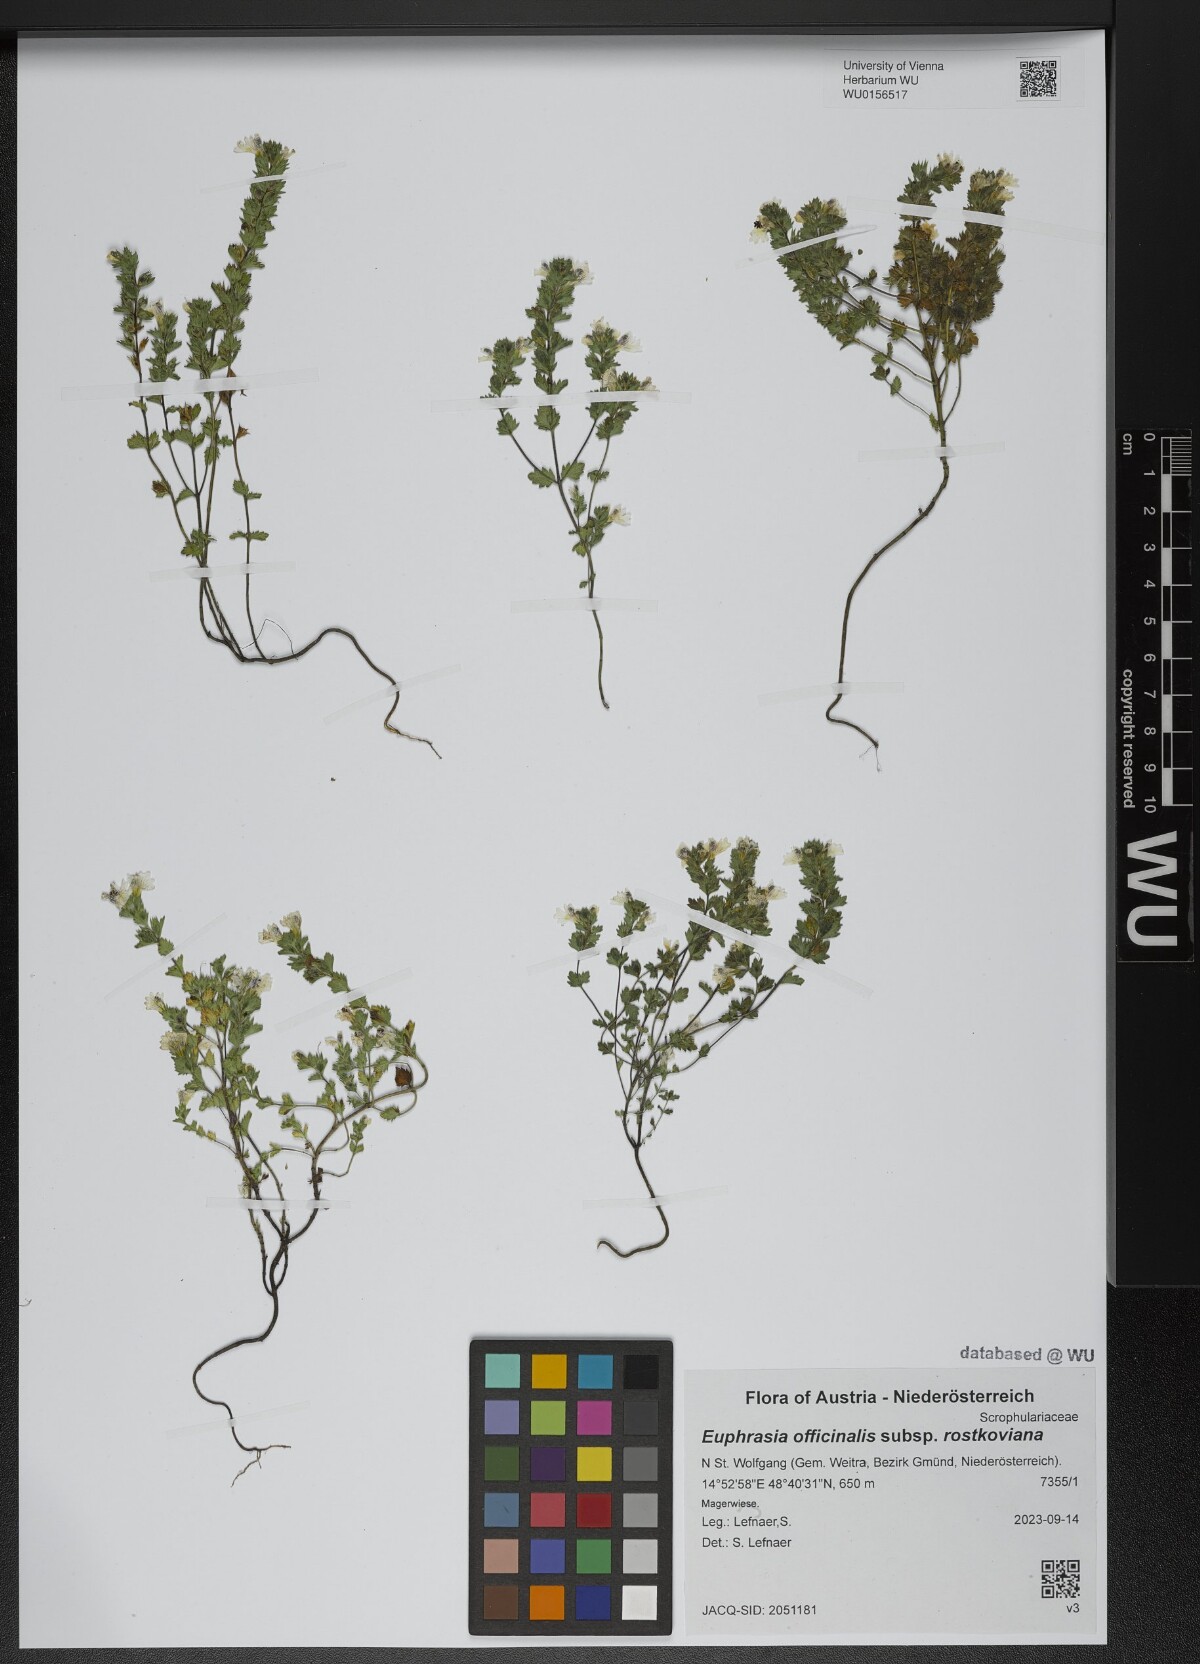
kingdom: Plantae
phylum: Tracheophyta
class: Magnoliopsida
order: Lamiales
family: Orobanchaceae
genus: Euphrasia
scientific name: Euphrasia officinalis
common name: Eyebright
